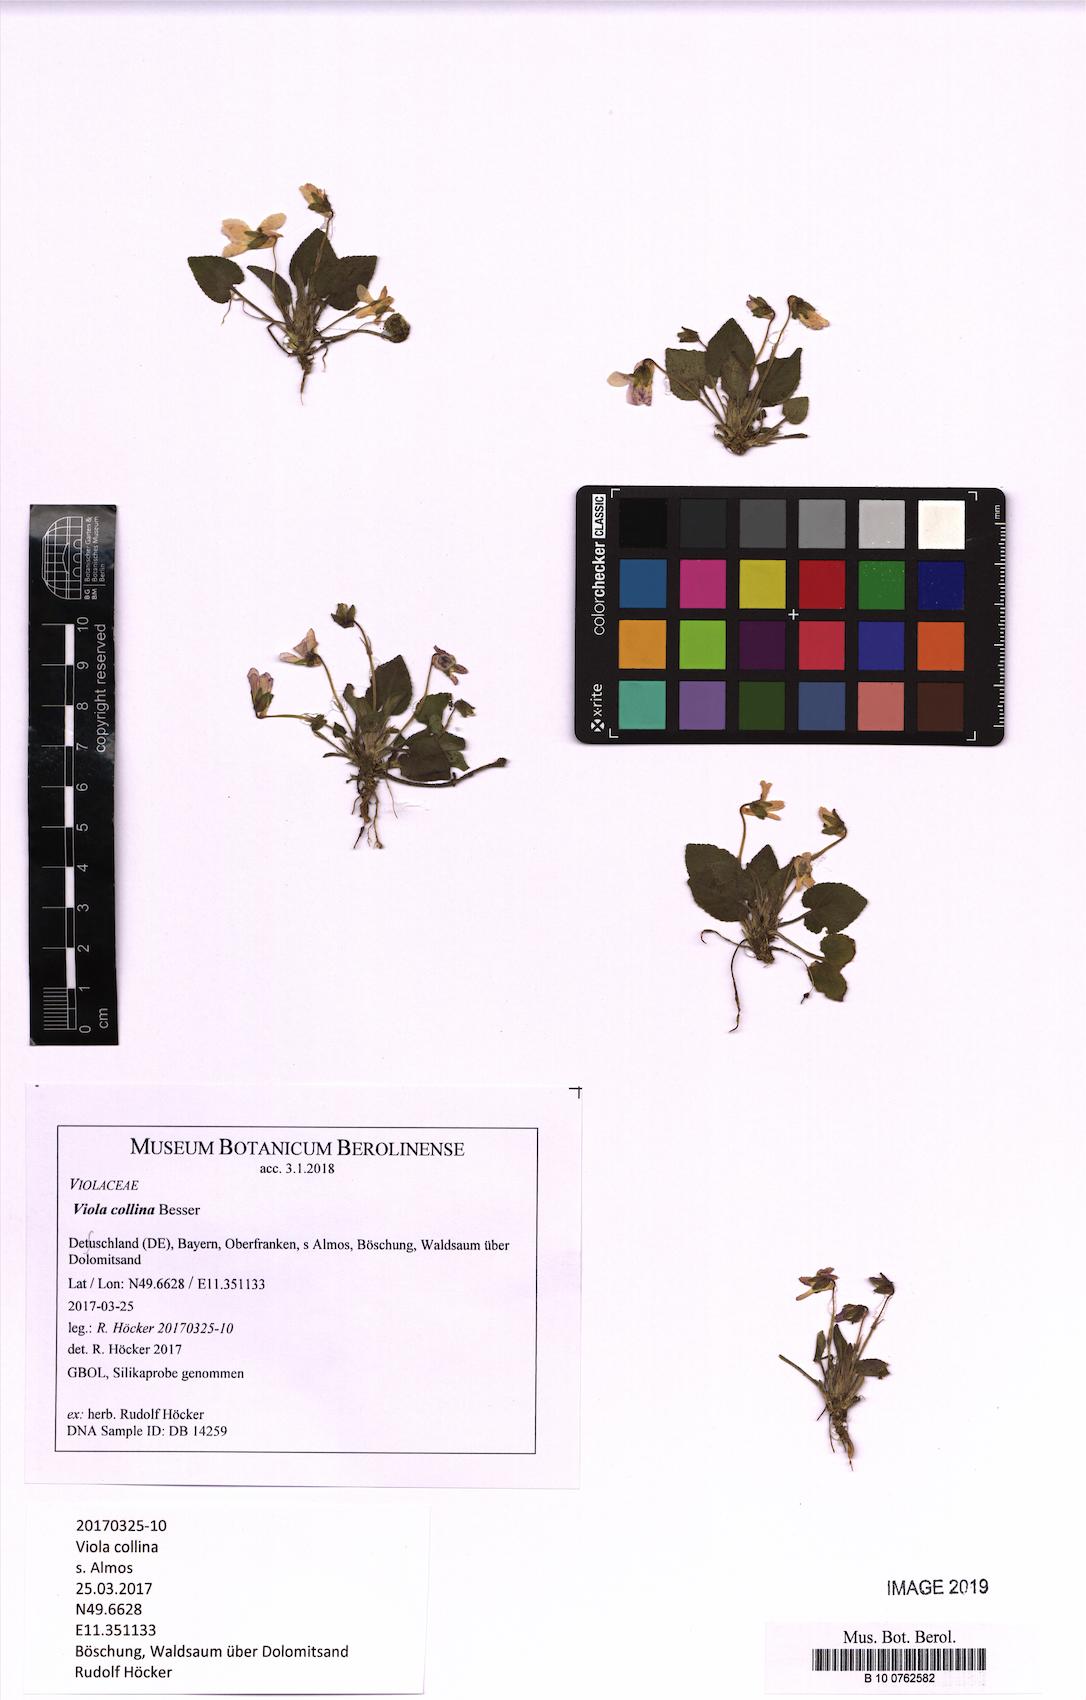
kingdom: Plantae
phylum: Tracheophyta
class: Magnoliopsida
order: Malpighiales
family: Violaceae
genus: Viola
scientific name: Viola collina
